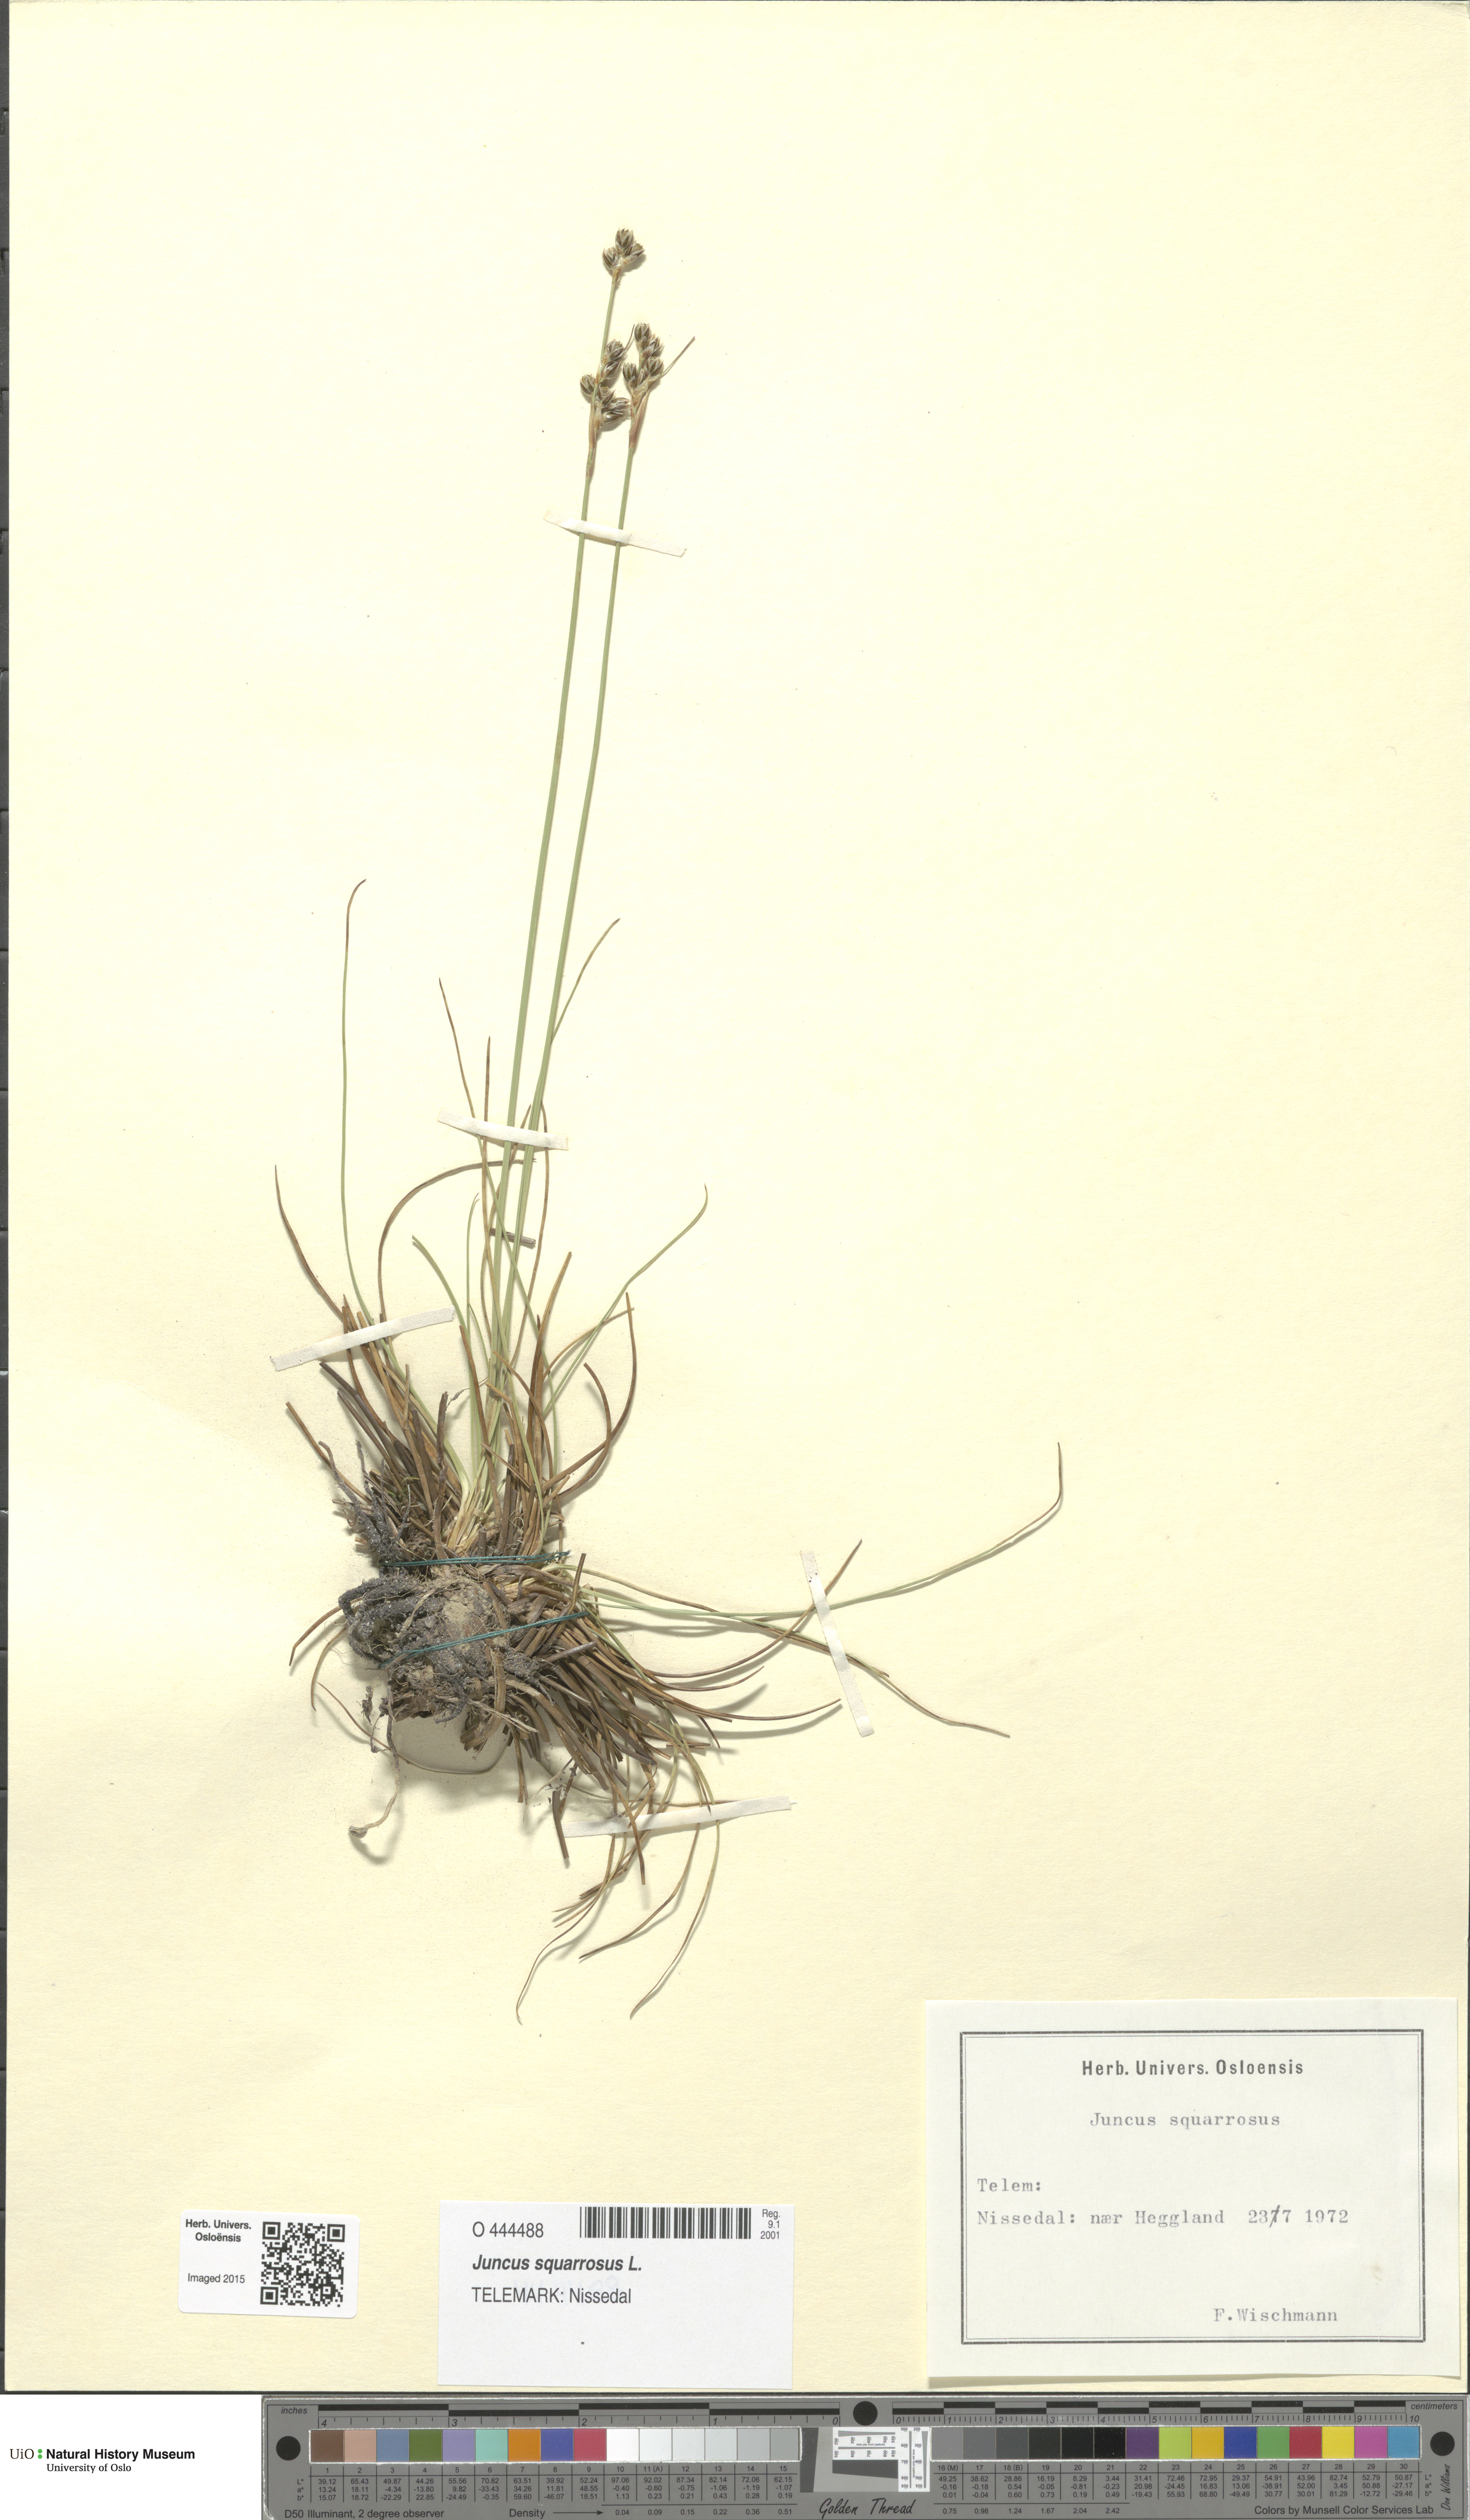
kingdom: Plantae
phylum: Tracheophyta
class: Liliopsida
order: Poales
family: Juncaceae
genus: Juncus
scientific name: Juncus squarrosus
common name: Heath rush
